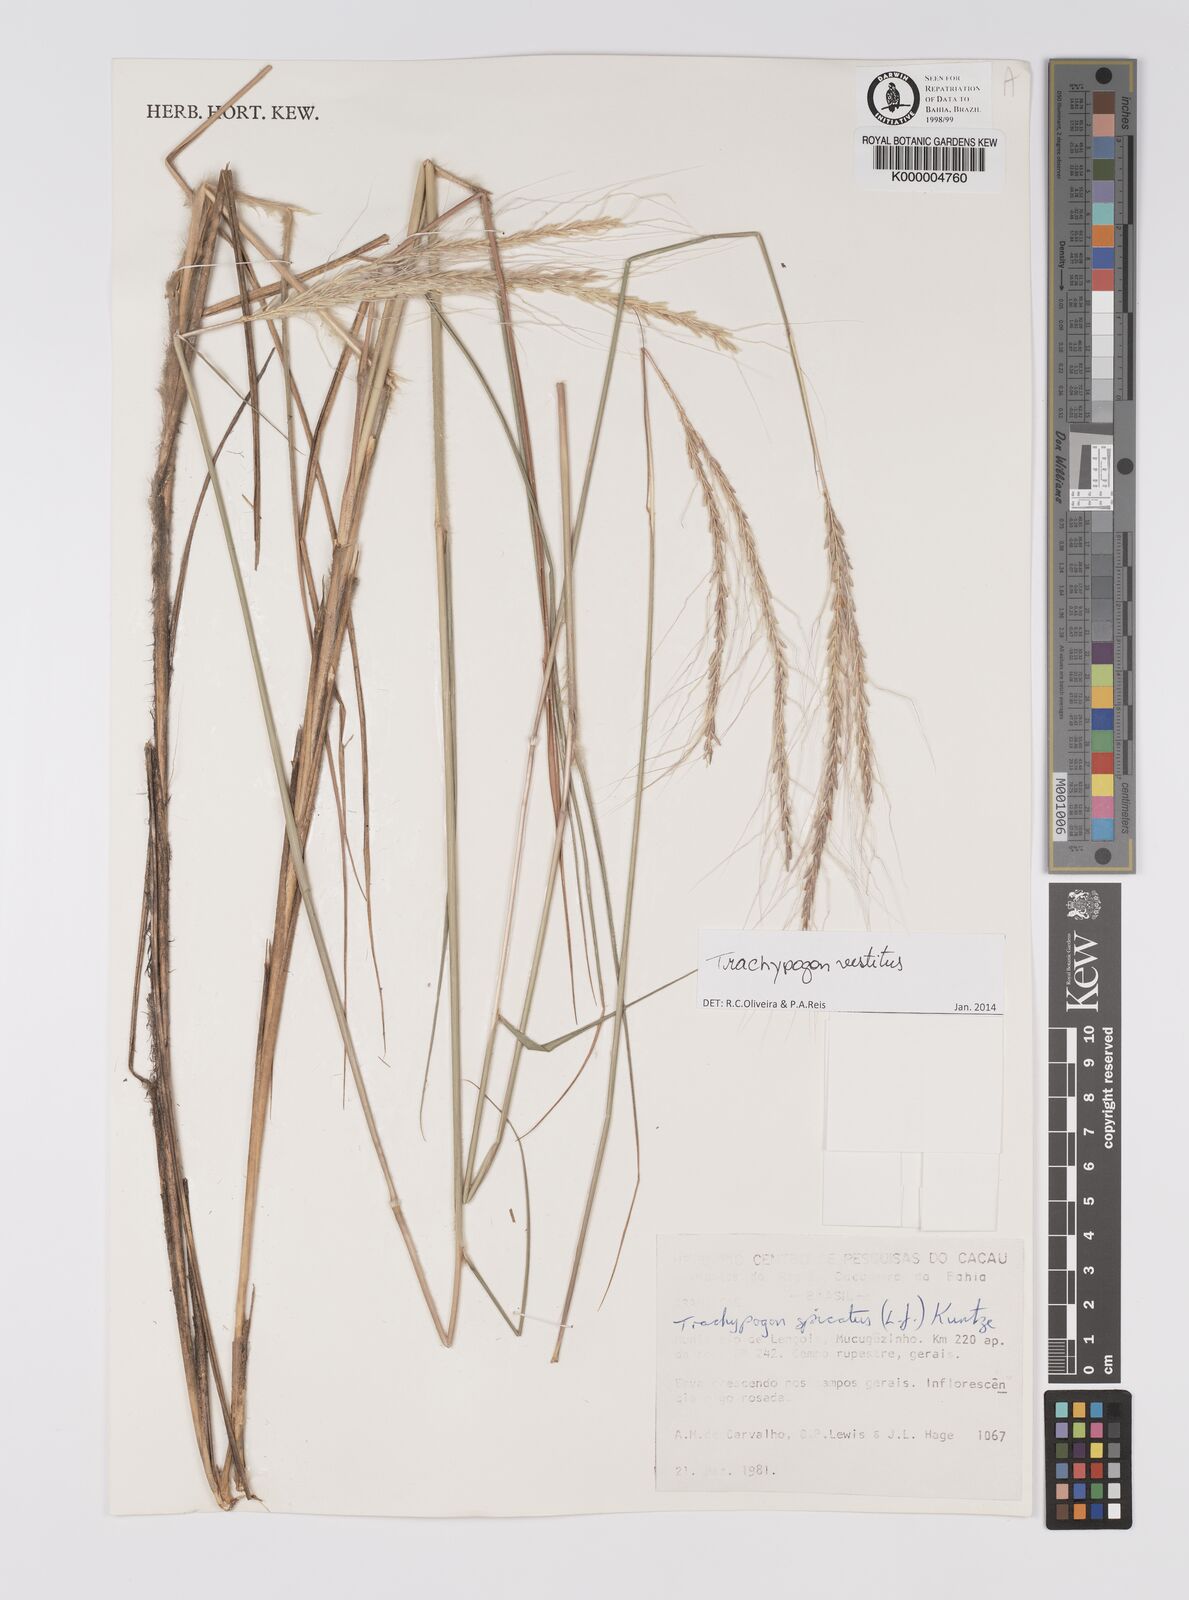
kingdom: Plantae
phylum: Tracheophyta
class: Liliopsida
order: Poales
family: Poaceae
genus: Trachypogon
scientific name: Trachypogon spicatus
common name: Crinkle-awn
